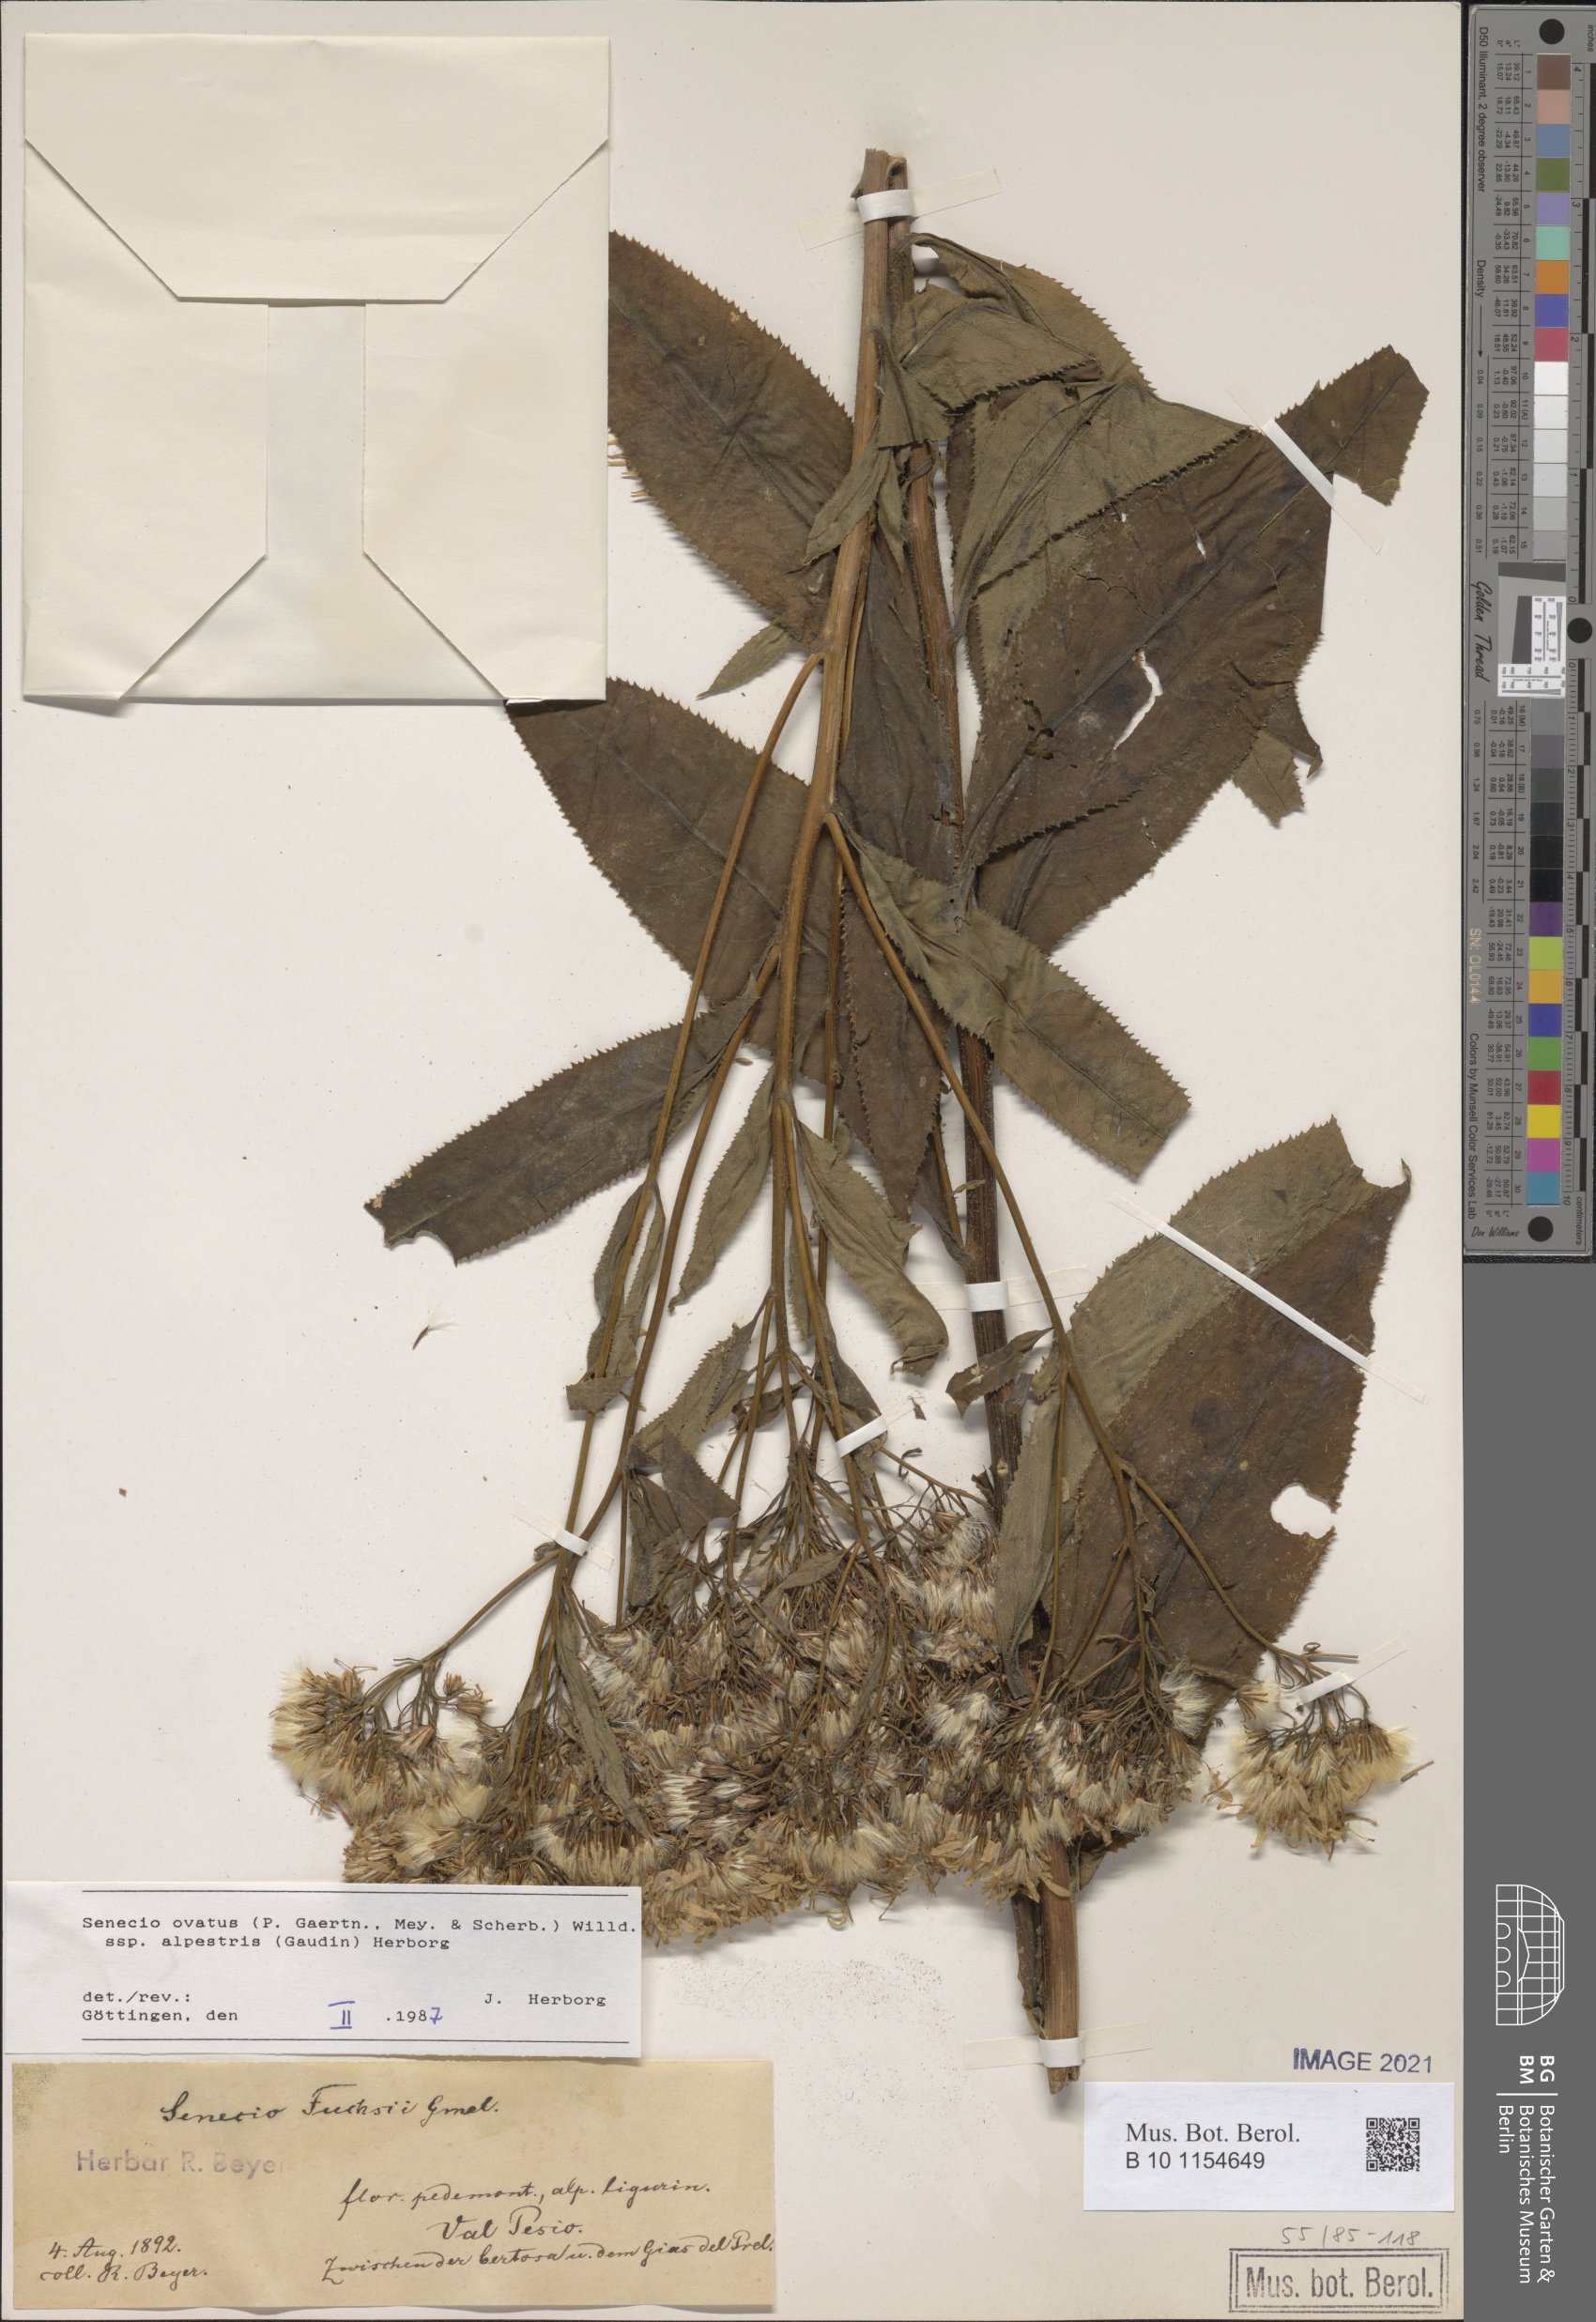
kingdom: Plantae
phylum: Tracheophyta
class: Magnoliopsida
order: Asterales
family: Asteraceae
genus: Senecio
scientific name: Senecio ovatus
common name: Wood ragwort
